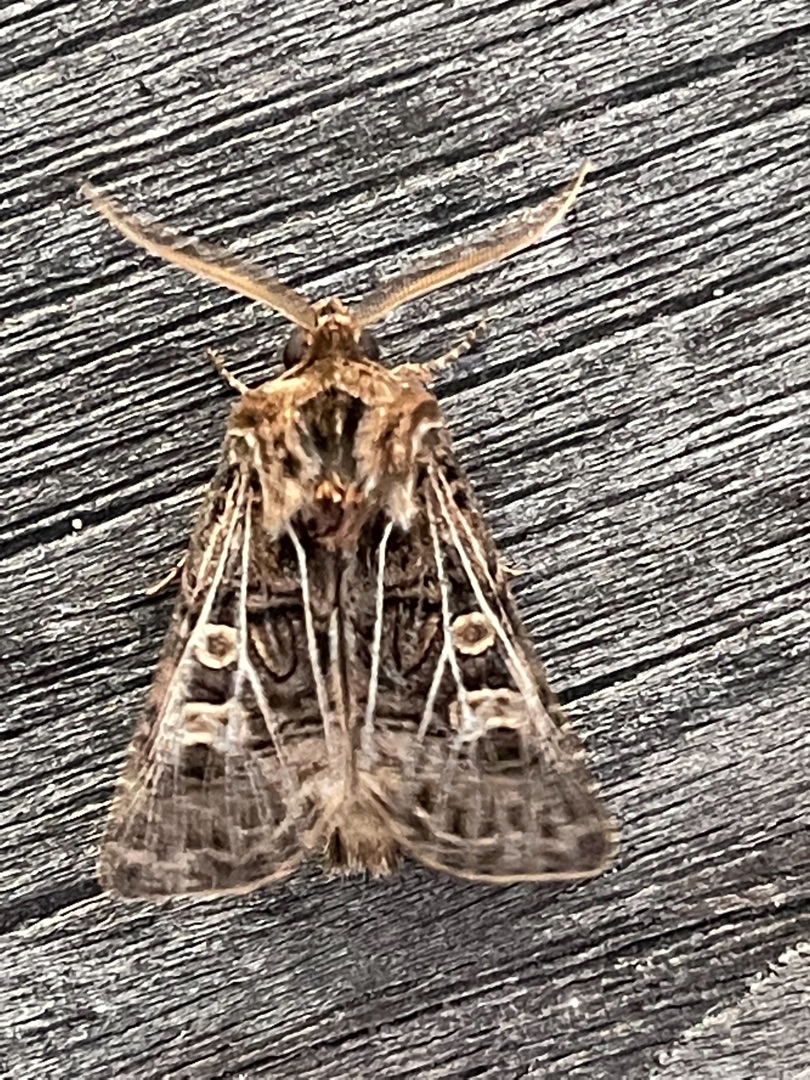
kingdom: Animalia
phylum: Arthropoda
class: Insecta
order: Lepidoptera
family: Noctuidae
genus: Tholera
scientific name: Tholera decimalis
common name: Hvidåret græsugle
